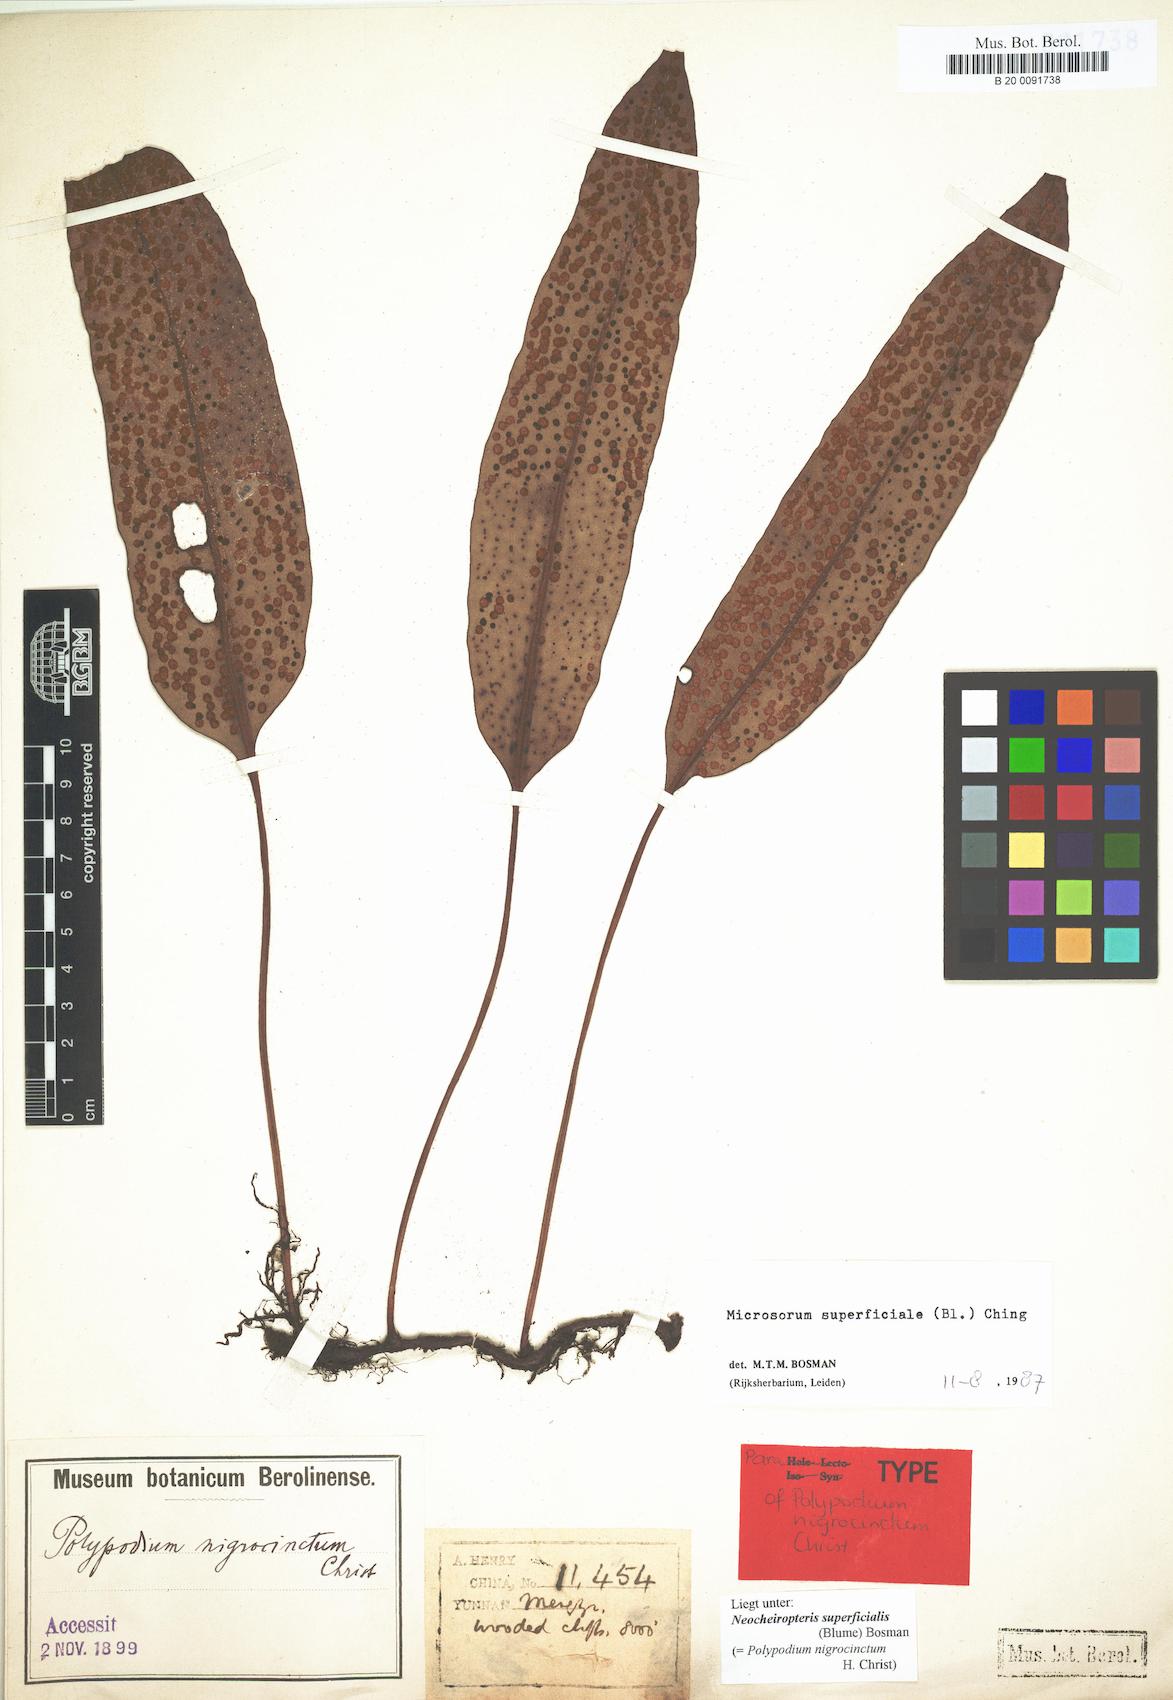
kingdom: Plantae
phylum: Tracheophyta
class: Polypodiopsida
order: Polypodiales
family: Polypodiaceae
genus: Lepisorus
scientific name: Lepisorus superficialis
